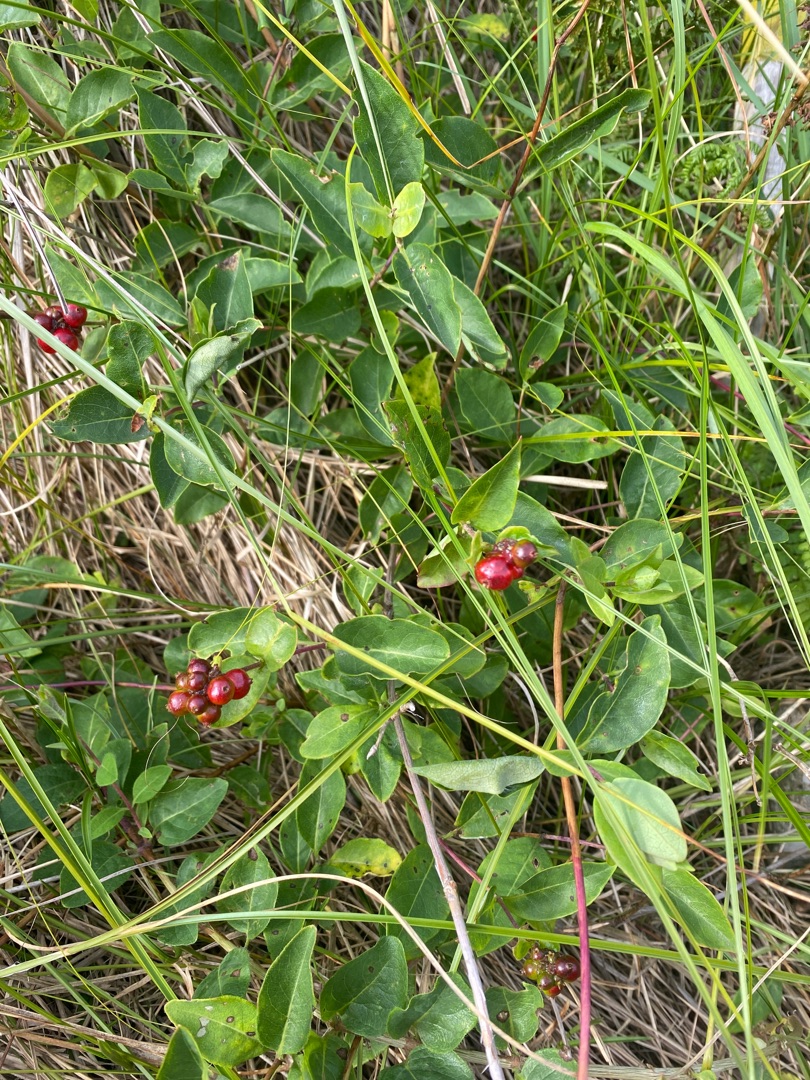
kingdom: Plantae
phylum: Tracheophyta
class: Magnoliopsida
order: Dipsacales
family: Caprifoliaceae
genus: Lonicera
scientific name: Lonicera periclymenum
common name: Almindelig gedeblad
